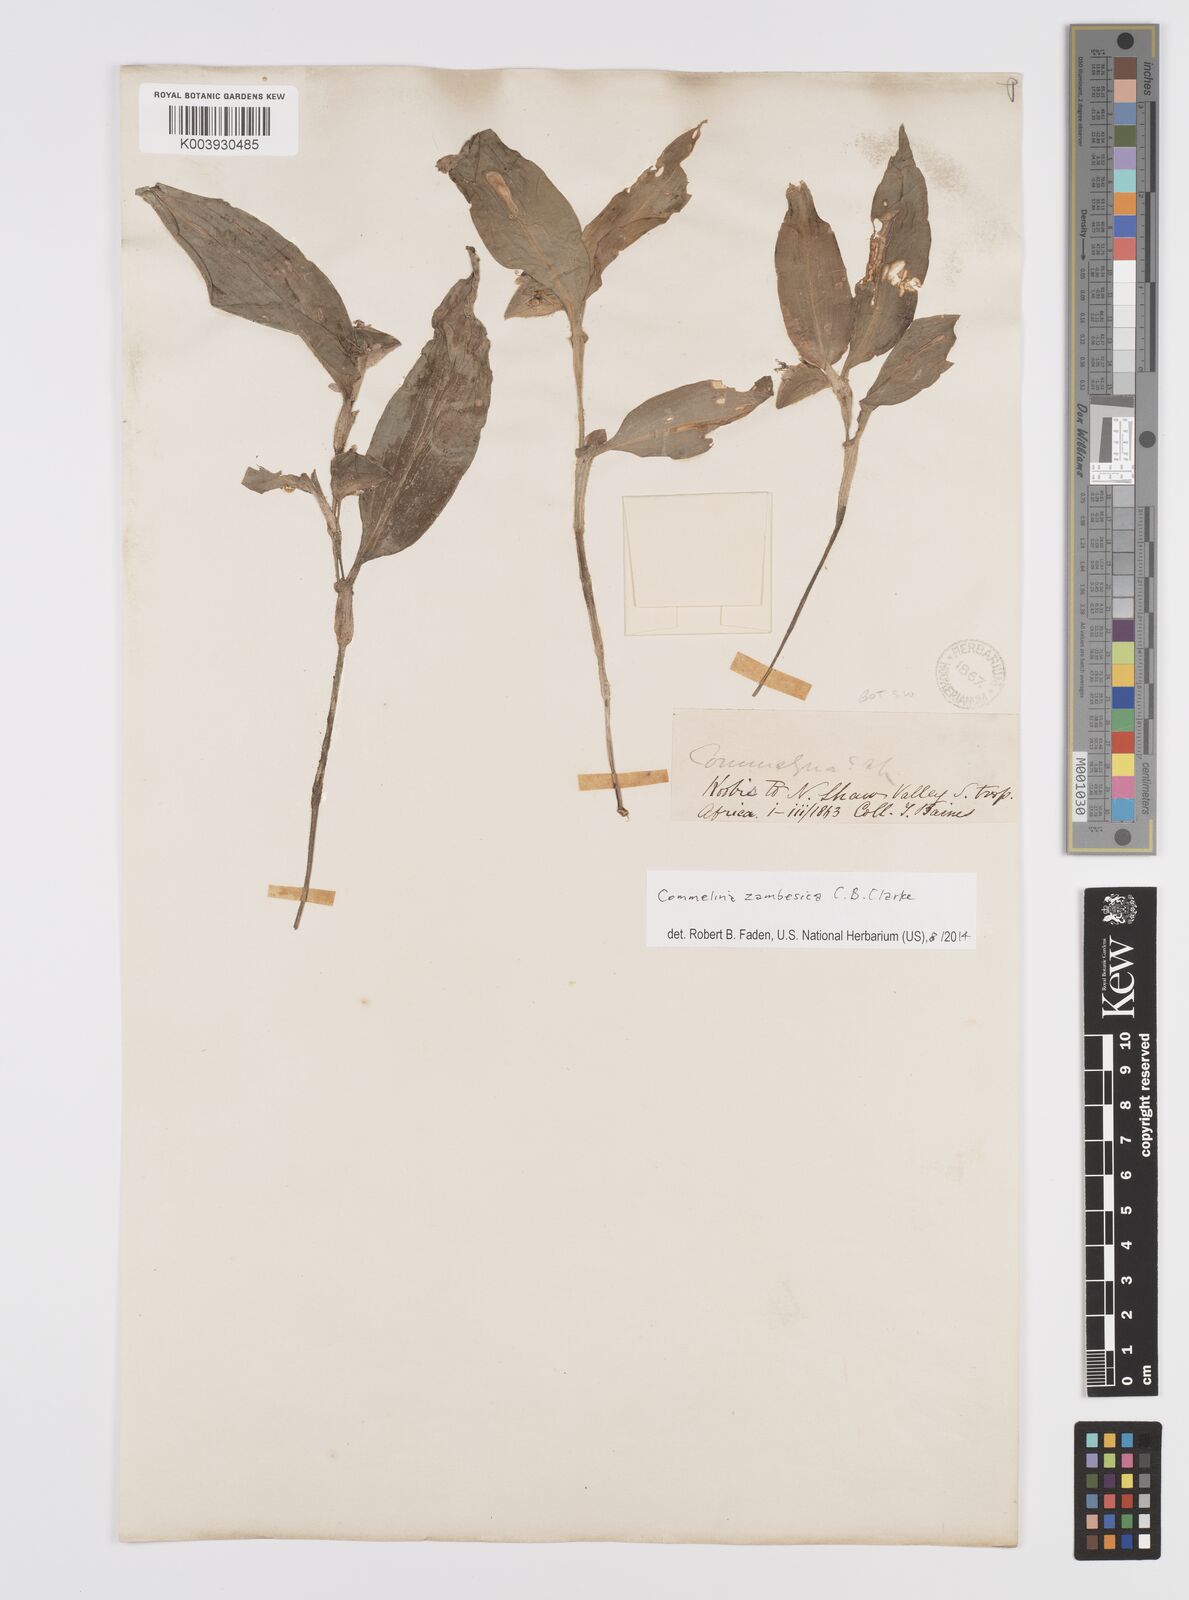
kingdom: Plantae
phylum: Tracheophyta
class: Liliopsida
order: Commelinales
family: Commelinaceae
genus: Commelina
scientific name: Commelina zambesica
